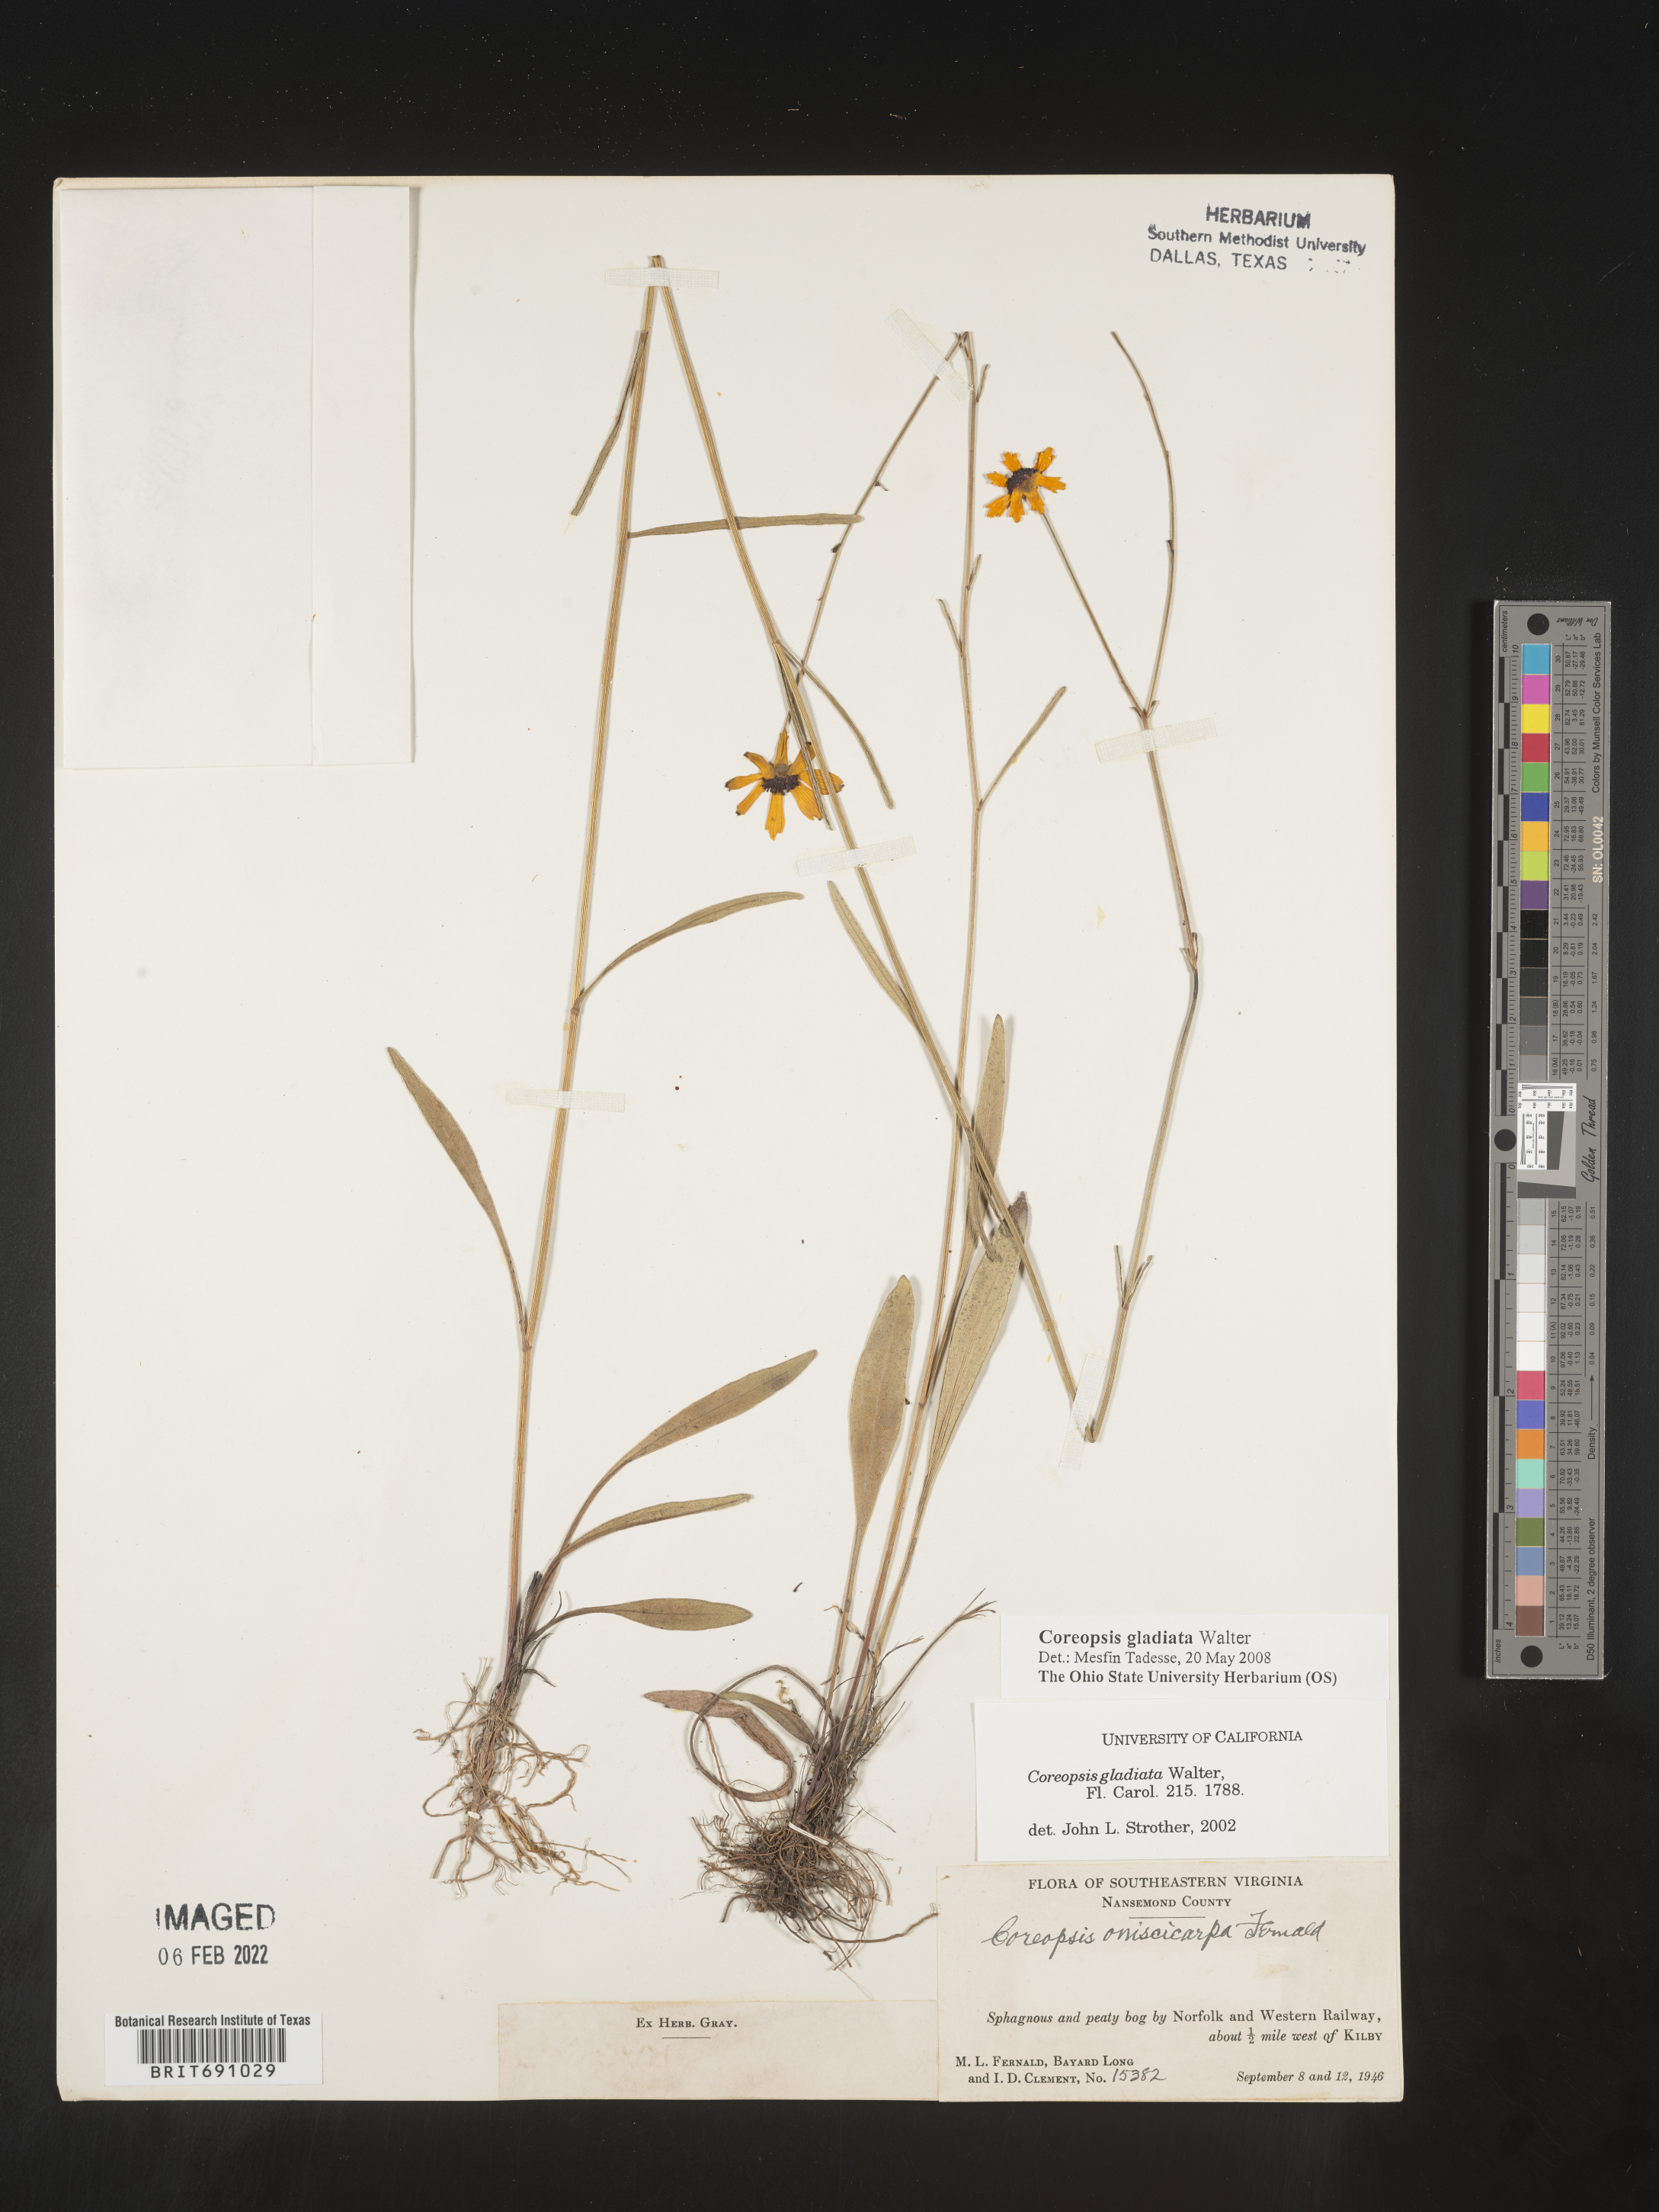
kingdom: Plantae
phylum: Tracheophyta
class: Magnoliopsida
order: Asterales
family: Asteraceae
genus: Coreopsis
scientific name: Coreopsis gladiata
